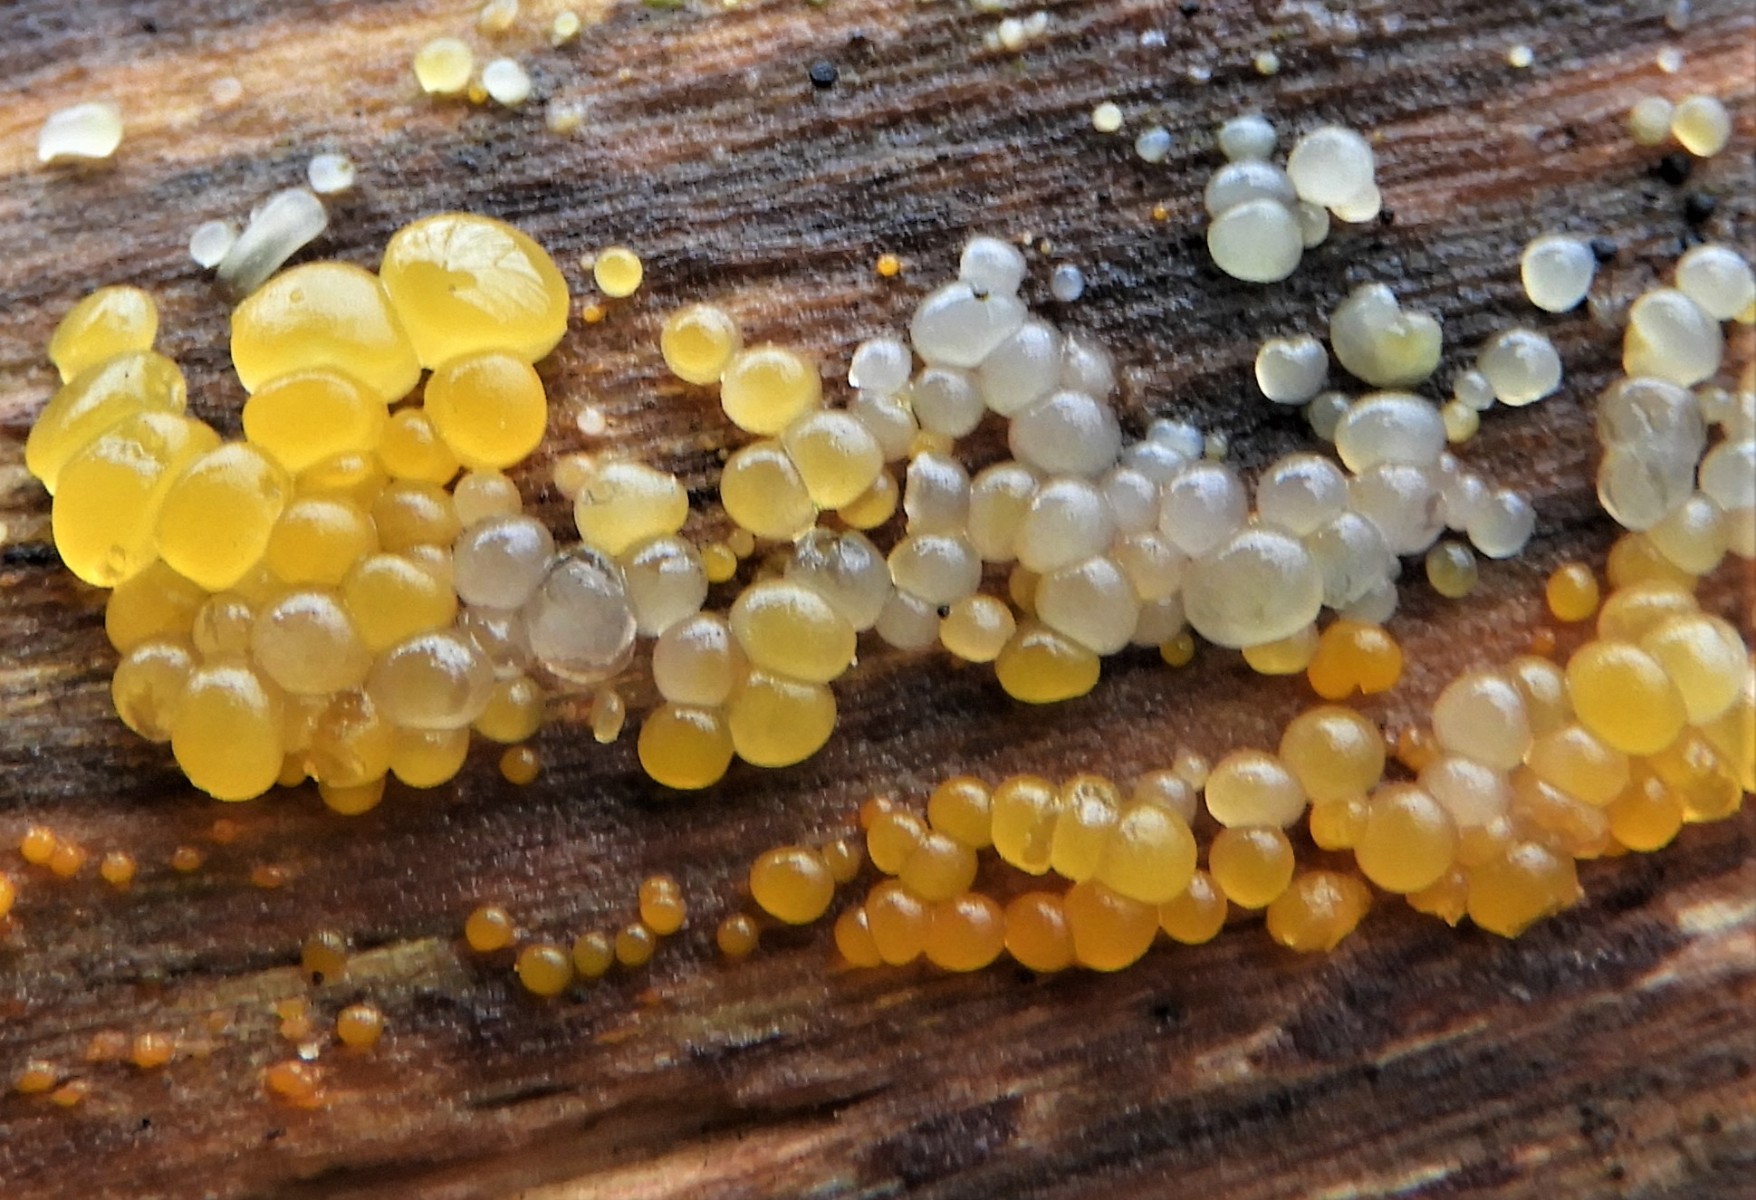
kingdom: Fungi
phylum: Basidiomycota
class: Dacrymycetes
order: Dacrymycetales
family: Dacrymycetaceae
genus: Dacrymyces
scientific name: Dacrymyces lacrymalis
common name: rynket tåresvamp
